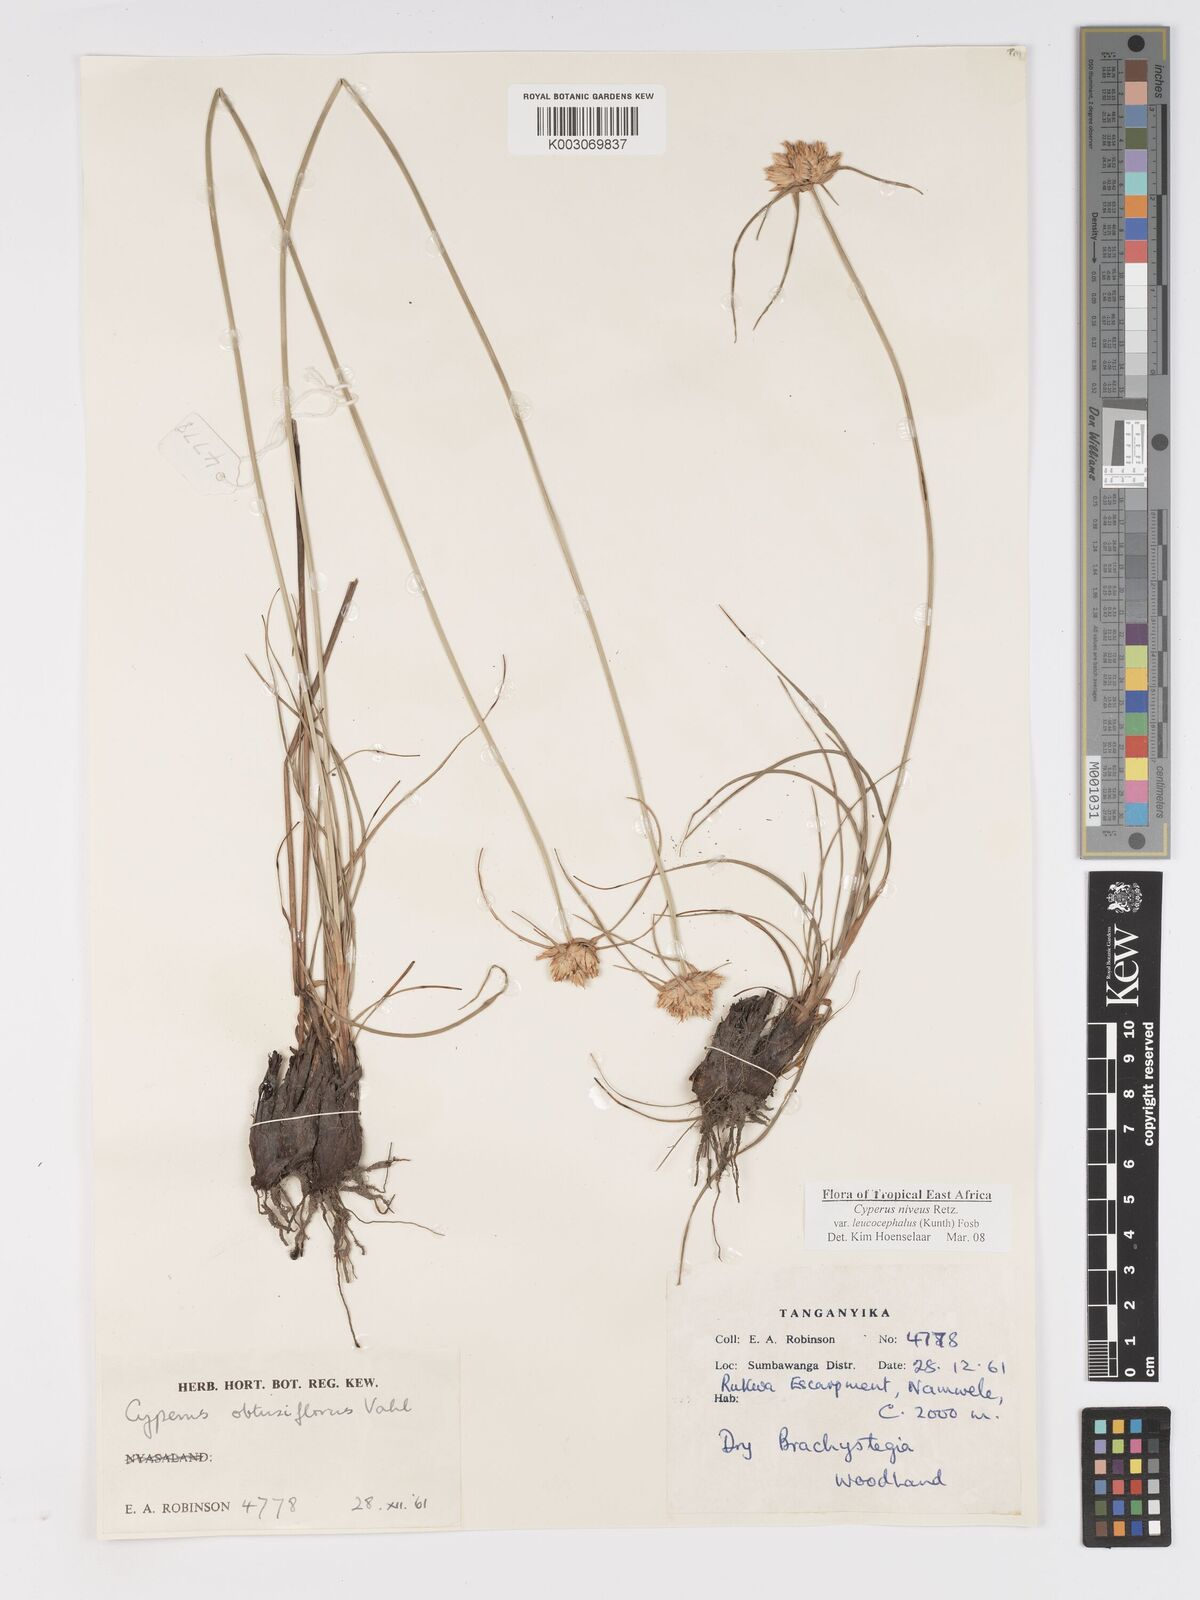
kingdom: Plantae
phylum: Tracheophyta
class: Liliopsida
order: Poales
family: Cyperaceae
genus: Cyperus
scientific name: Cyperus niveus
